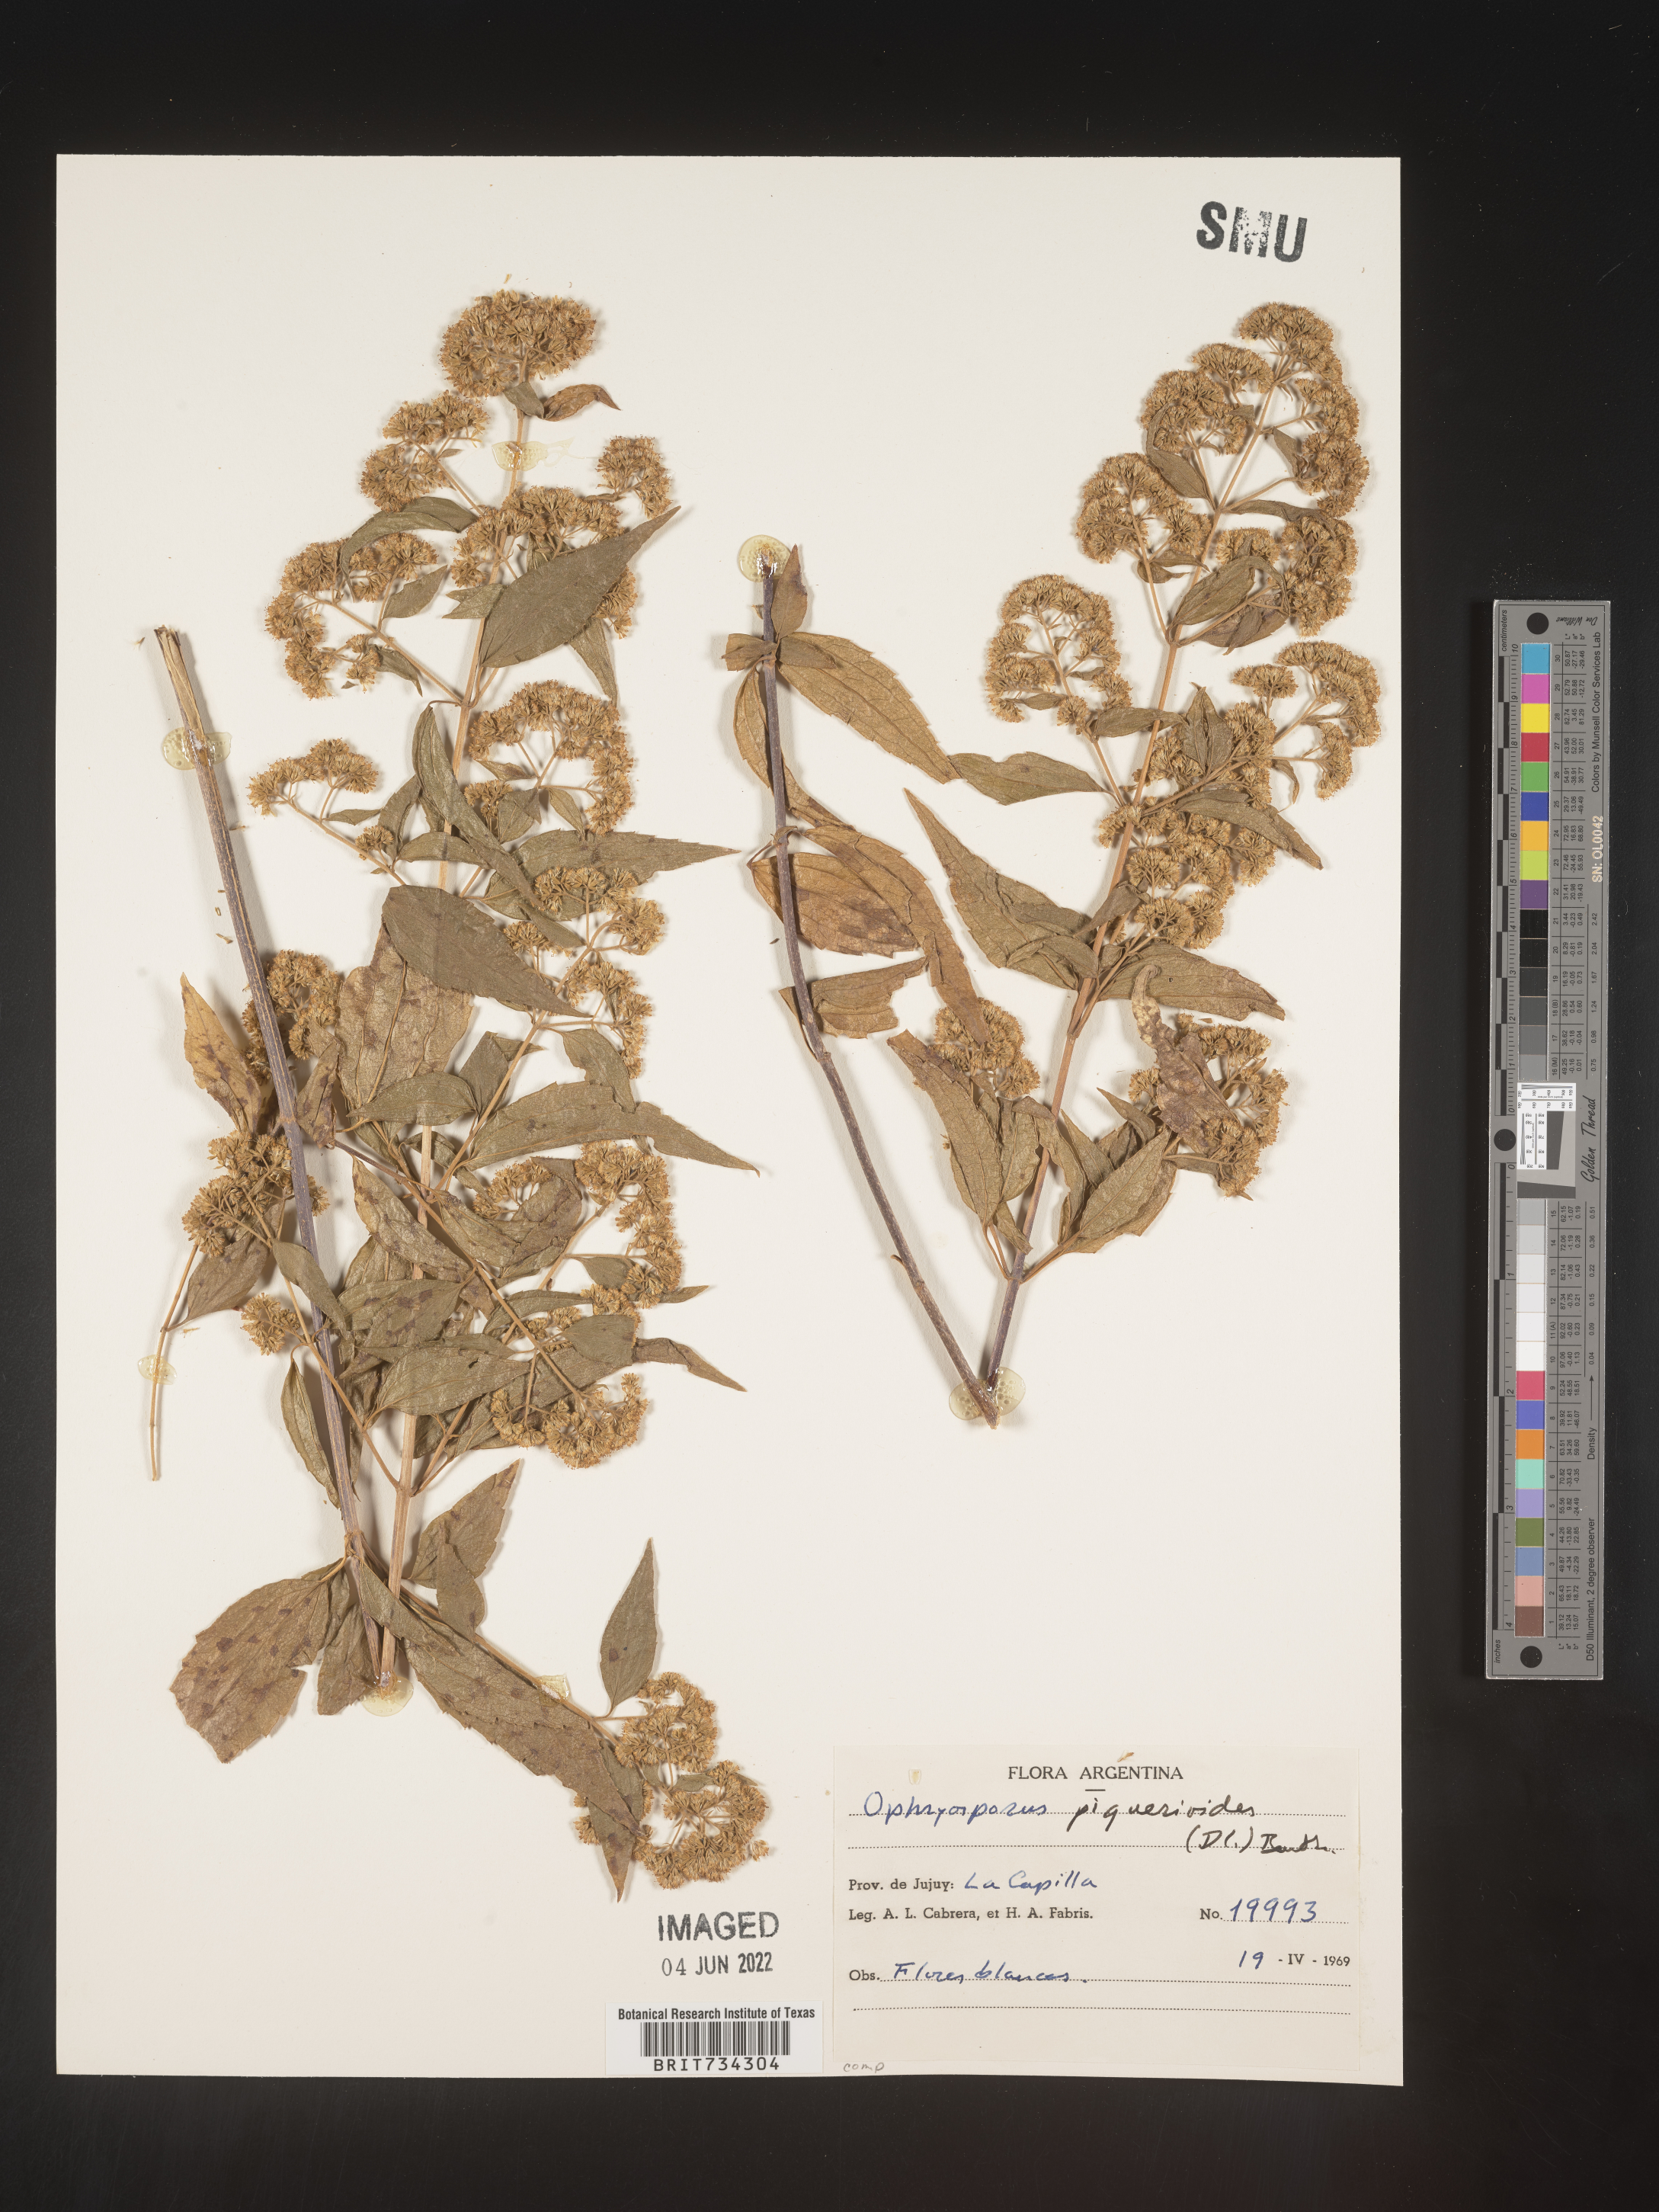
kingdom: Plantae
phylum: Tracheophyta
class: Magnoliopsida
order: Asterales
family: Asteraceae
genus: Ophryosporus
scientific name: Ophryosporus paradoxus
